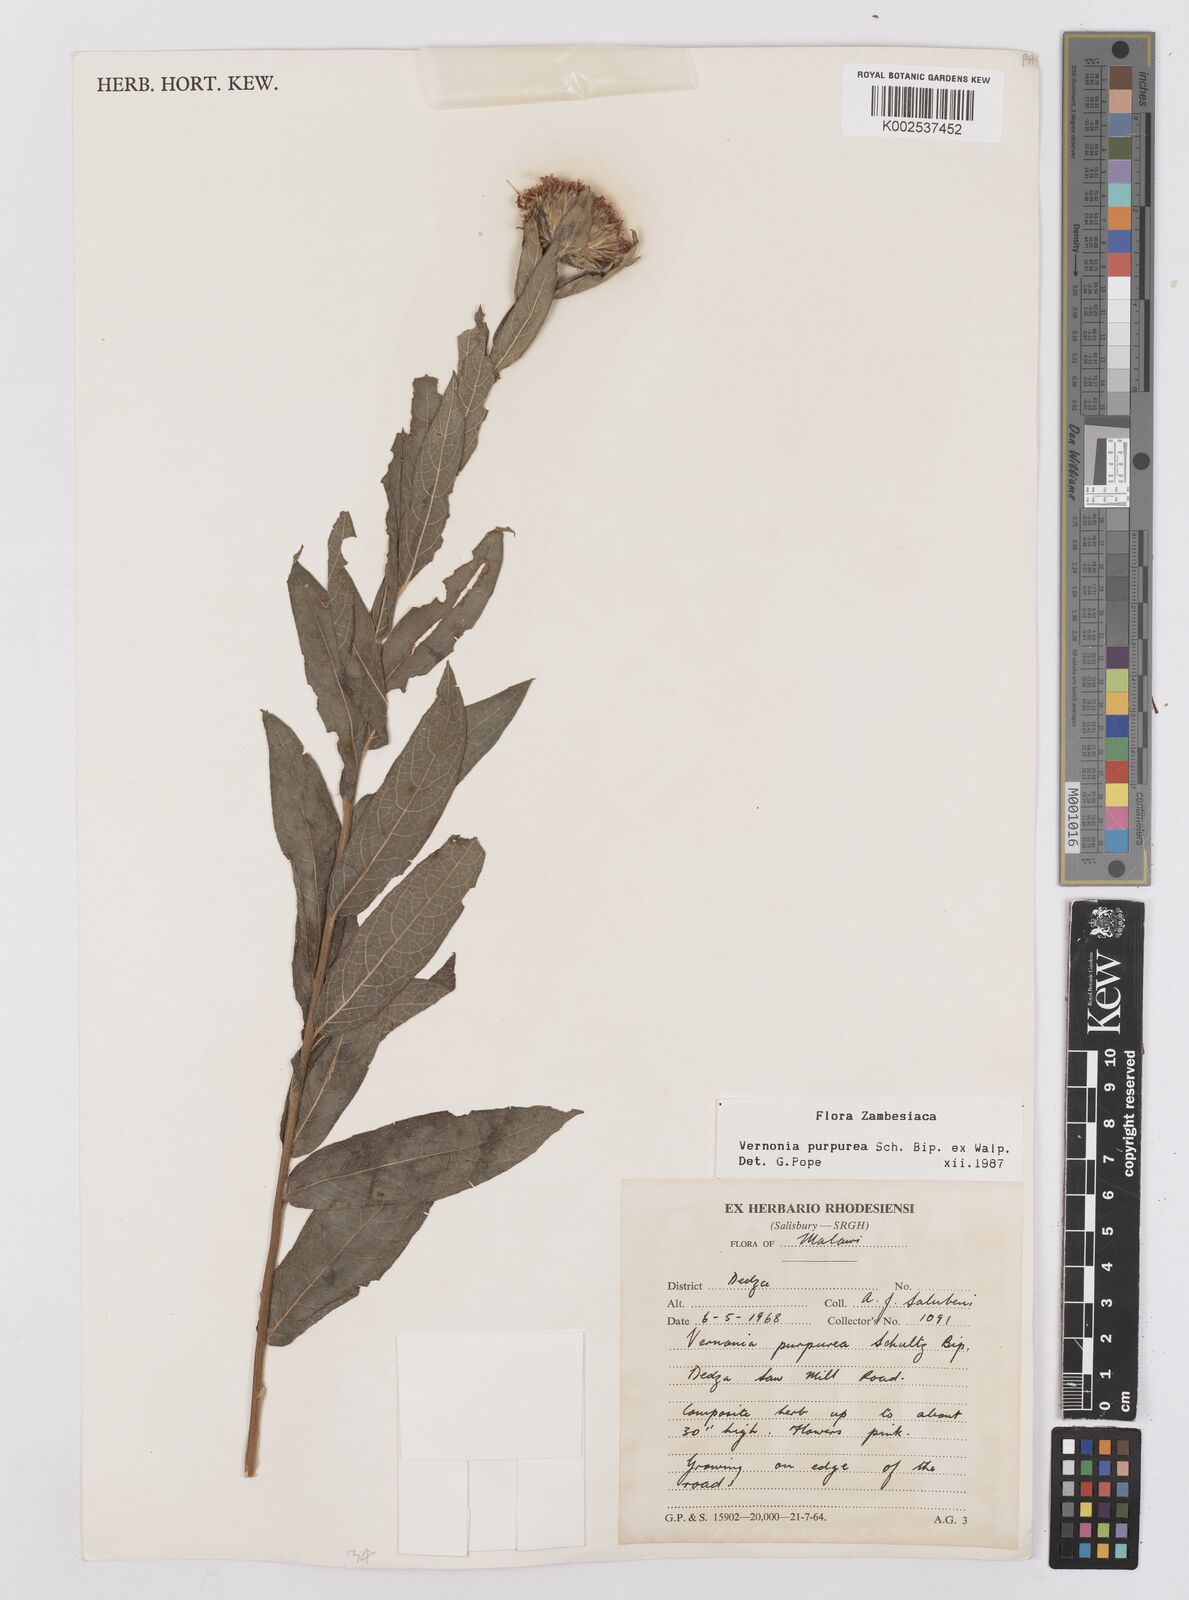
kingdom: Plantae
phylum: Tracheophyta
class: Magnoliopsida
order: Asterales
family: Asteraceae
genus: Nothovernonia
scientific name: Nothovernonia purpurea
